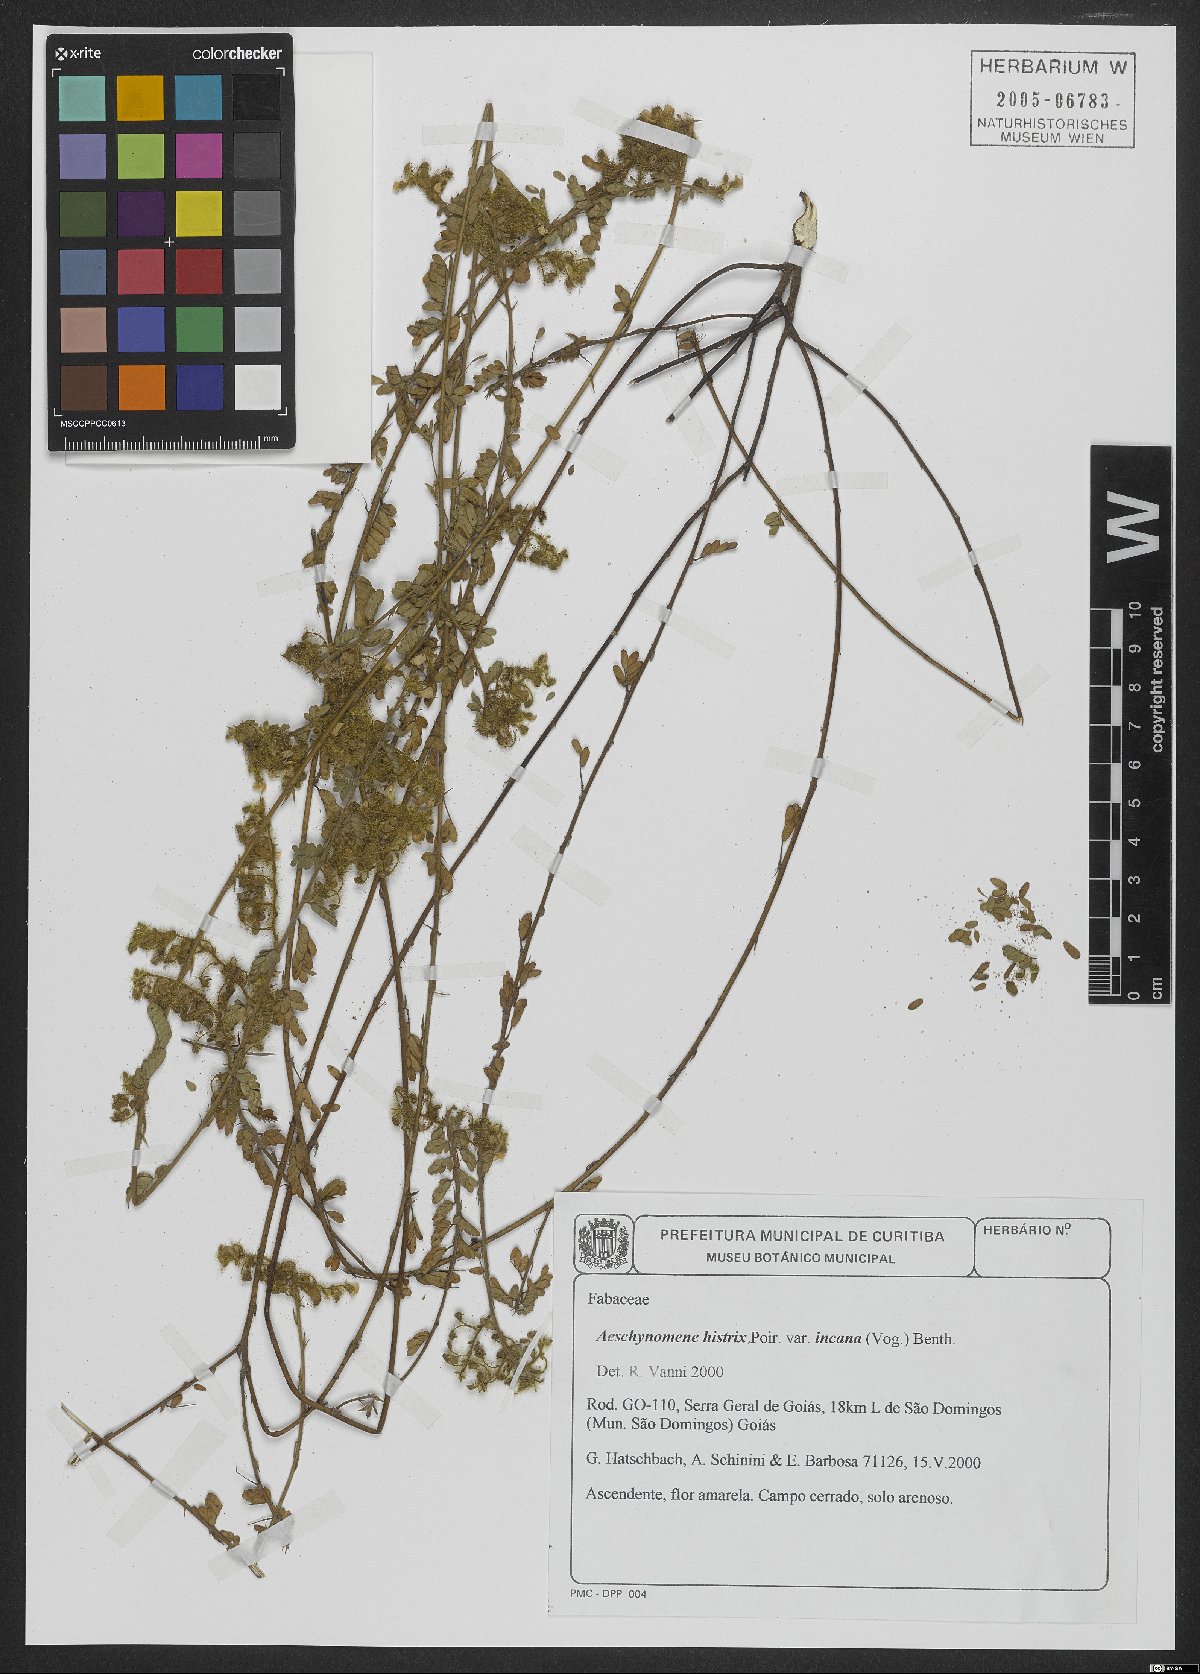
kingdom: Plantae
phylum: Tracheophyta
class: Magnoliopsida
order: Fabales
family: Fabaceae
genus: Ctenodon
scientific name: Ctenodon histrix
